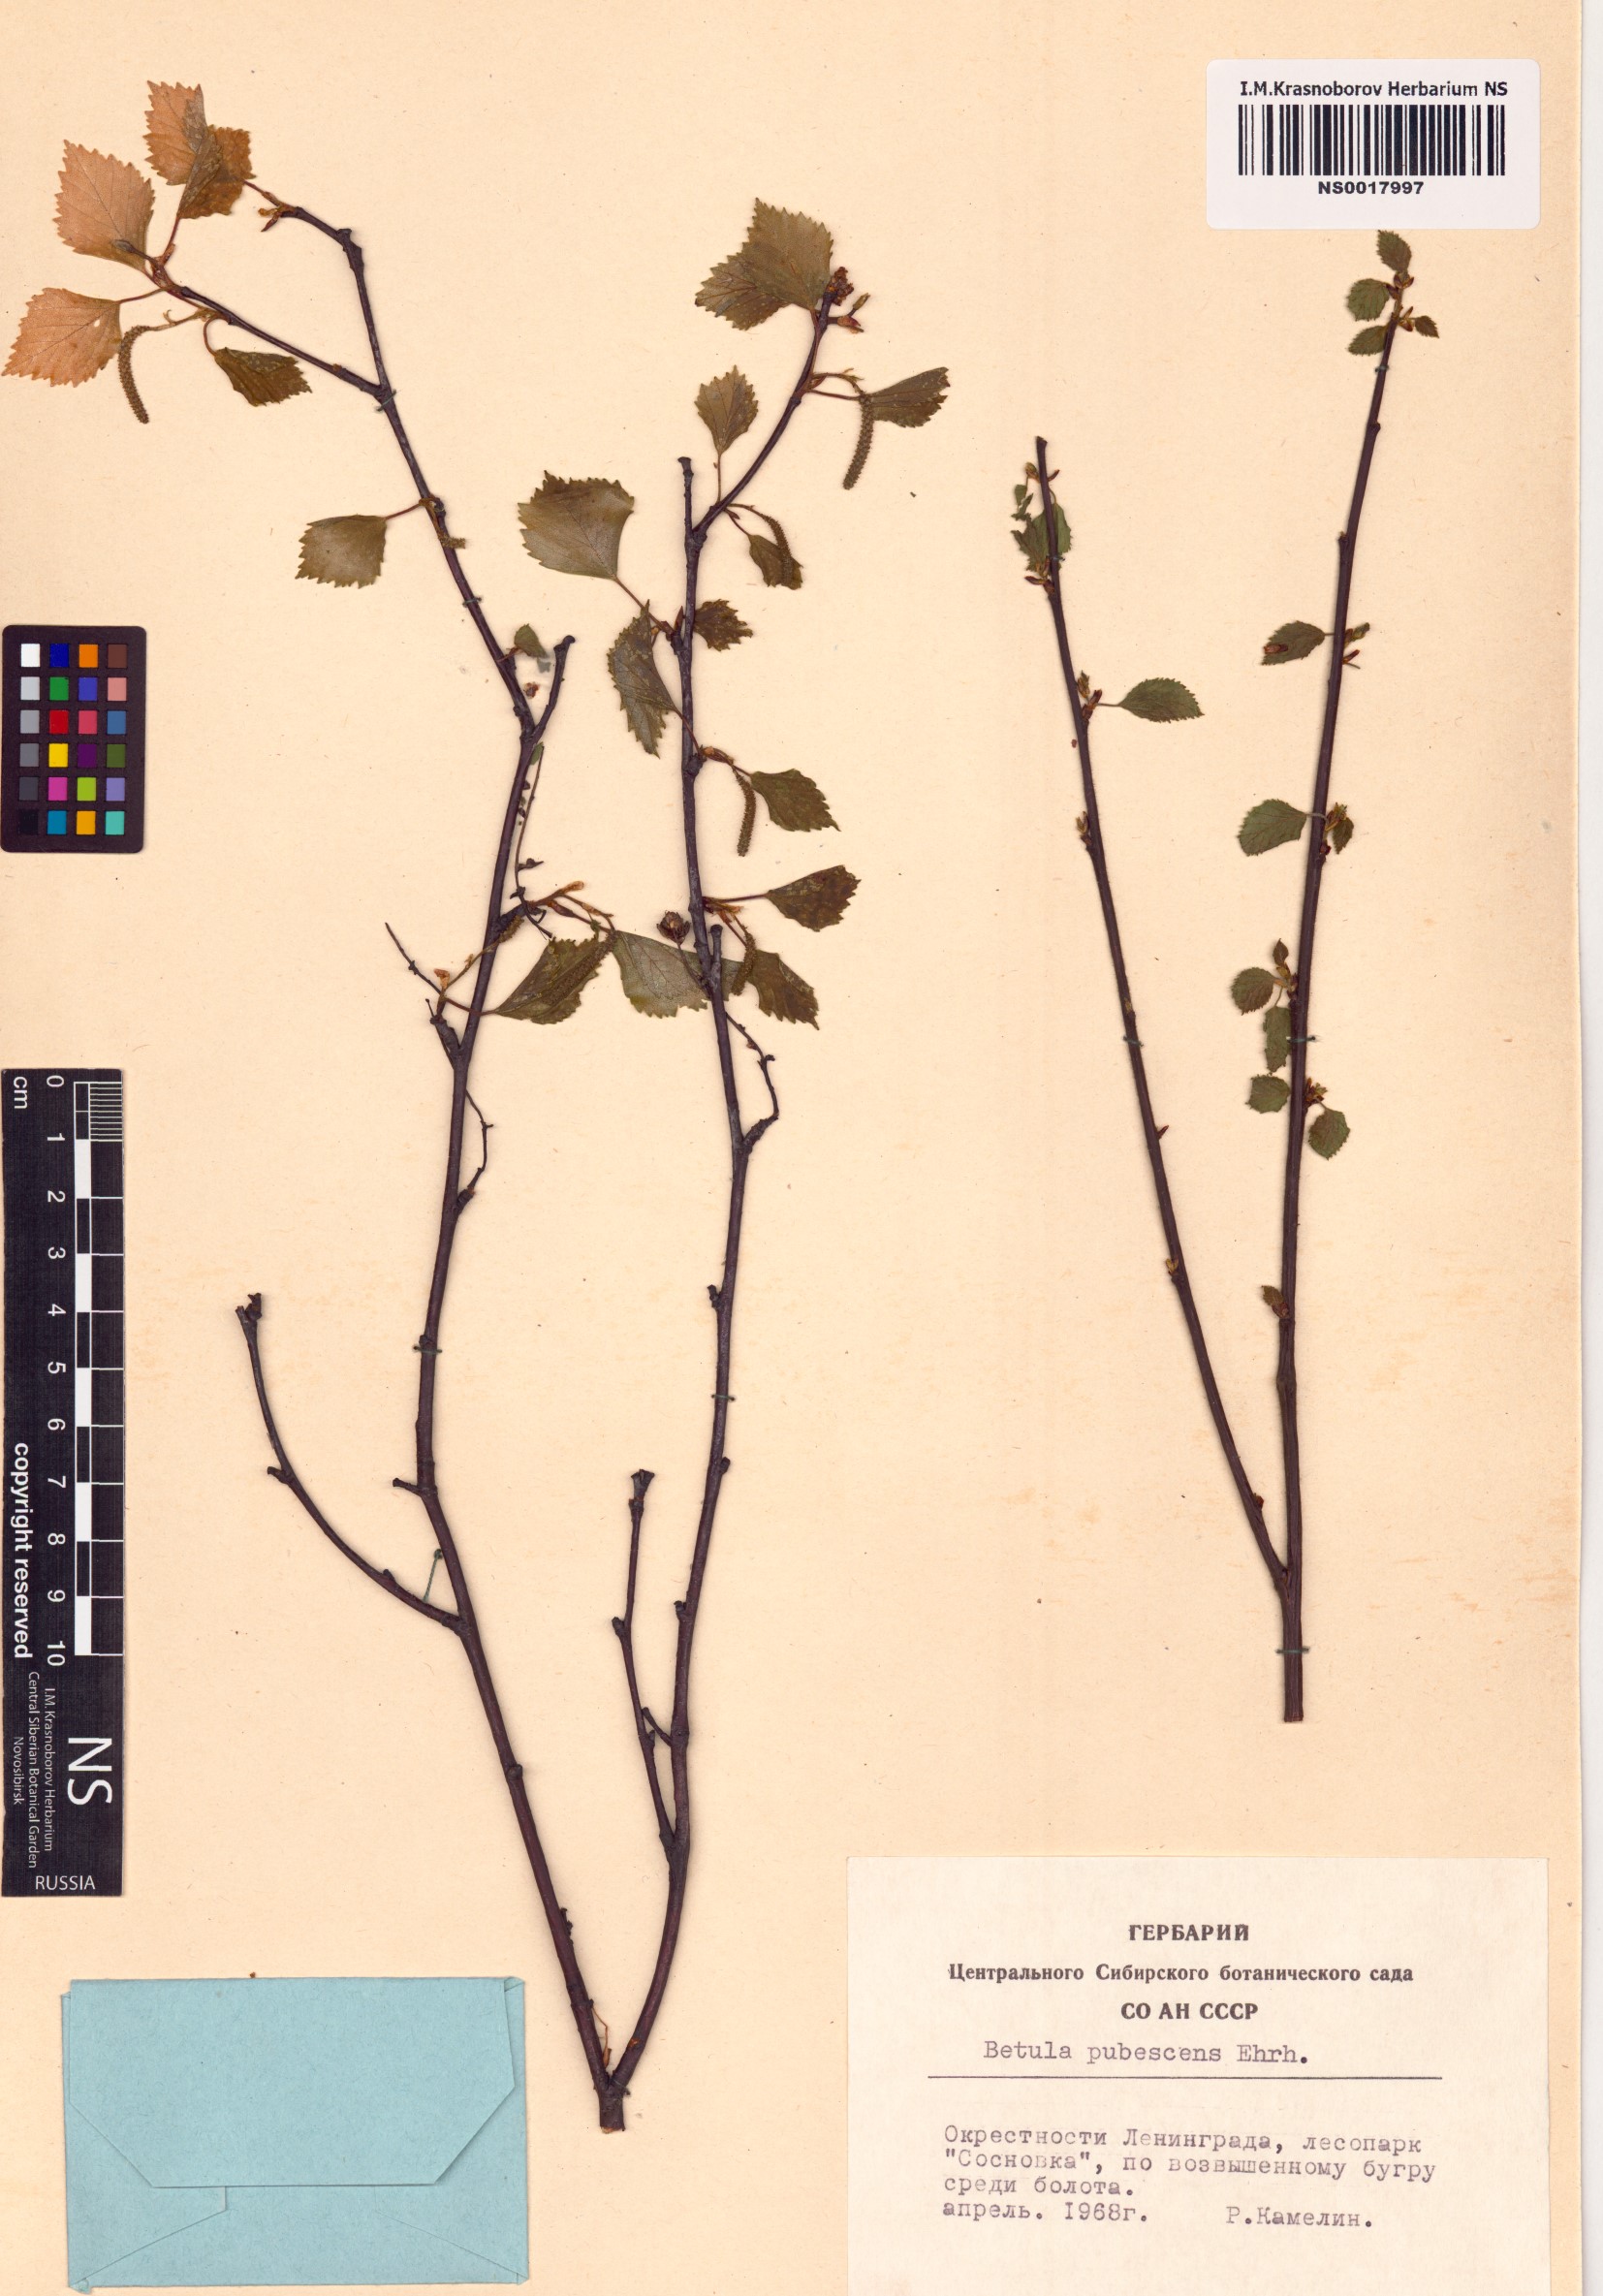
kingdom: Plantae
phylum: Tracheophyta
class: Magnoliopsida
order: Fagales
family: Betulaceae
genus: Betula
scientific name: Betula pubescens
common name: Downy birch
